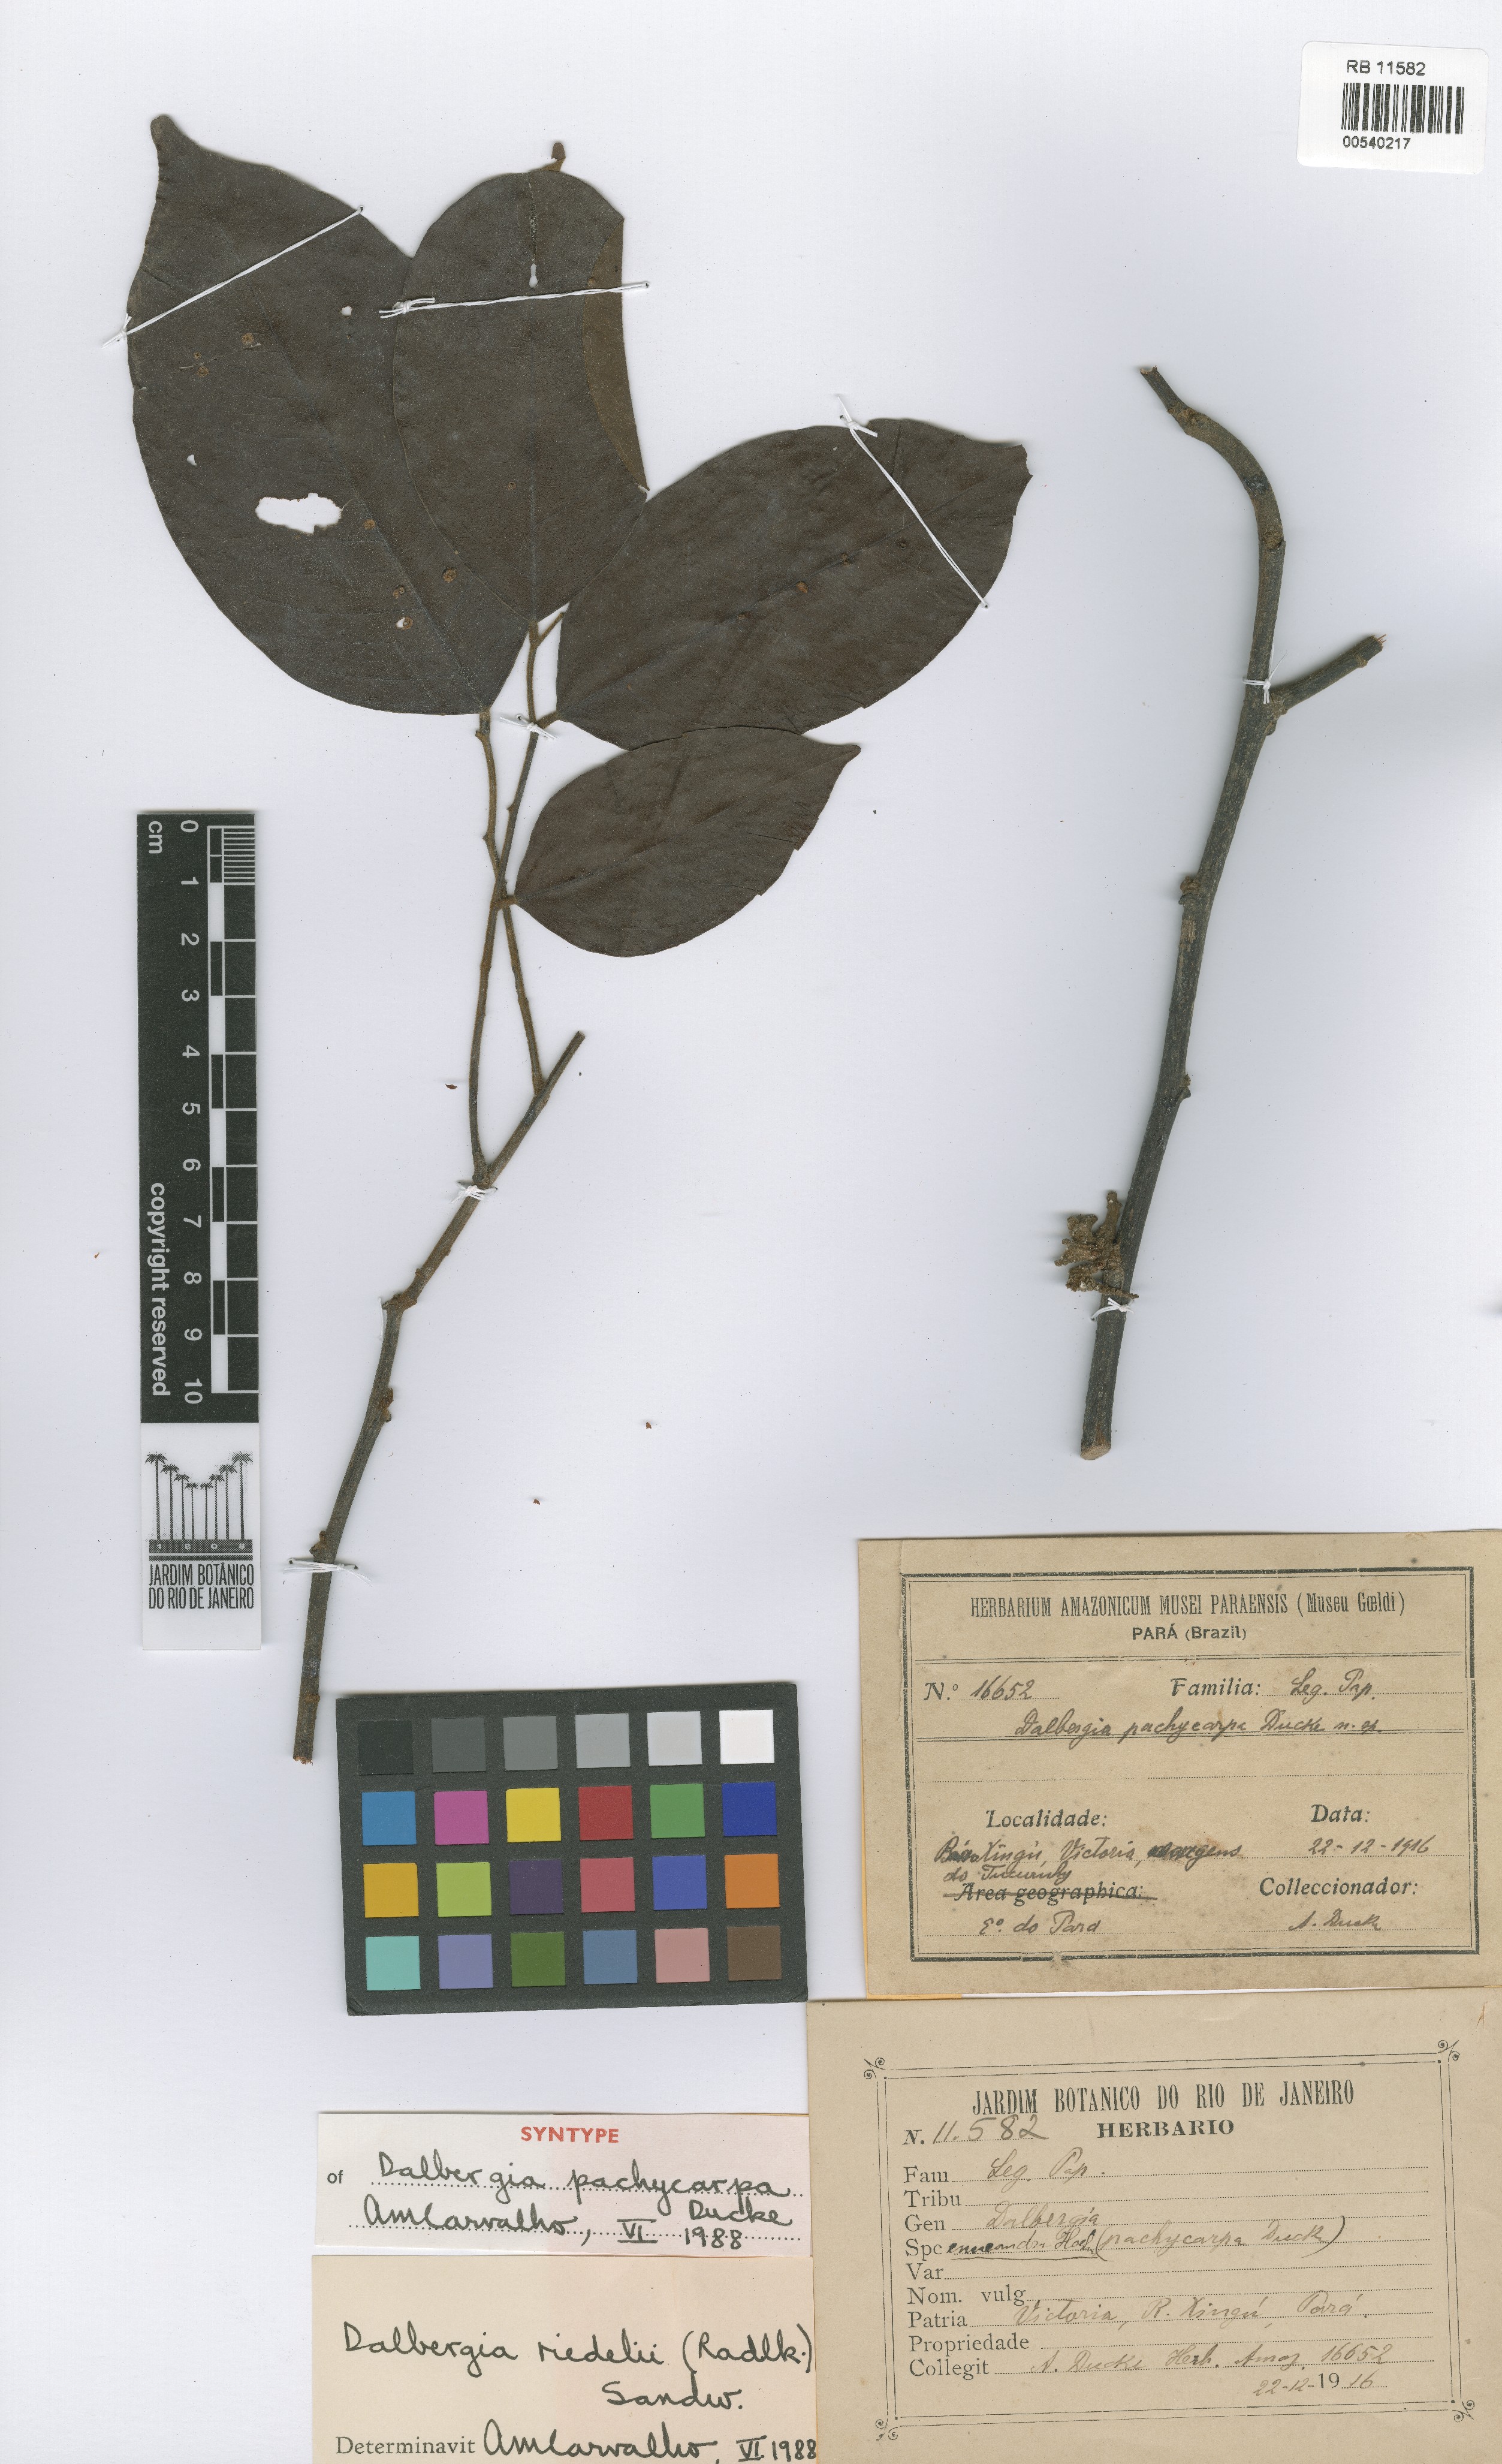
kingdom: Plantae
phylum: Tracheophyta
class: Magnoliopsida
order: Fabales
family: Fabaceae
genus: Dalbergia
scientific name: Dalbergia riedelii
